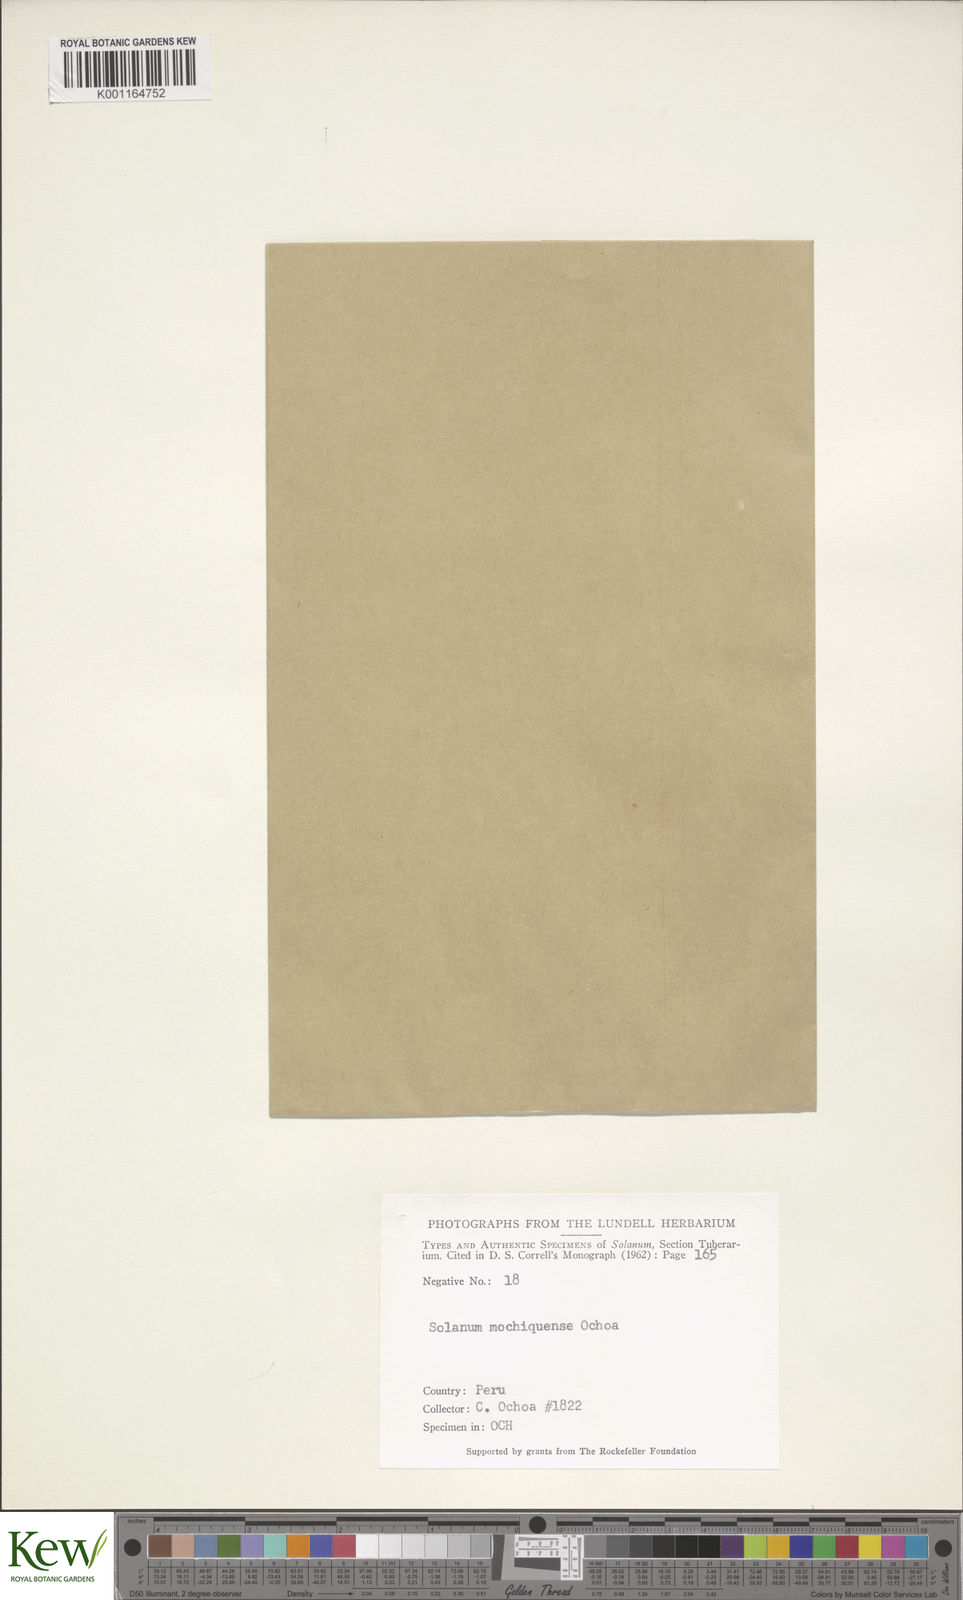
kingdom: Plantae
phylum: Tracheophyta
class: Magnoliopsida
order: Solanales
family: Solanaceae
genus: Solanum
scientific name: Solanum mochiquense
